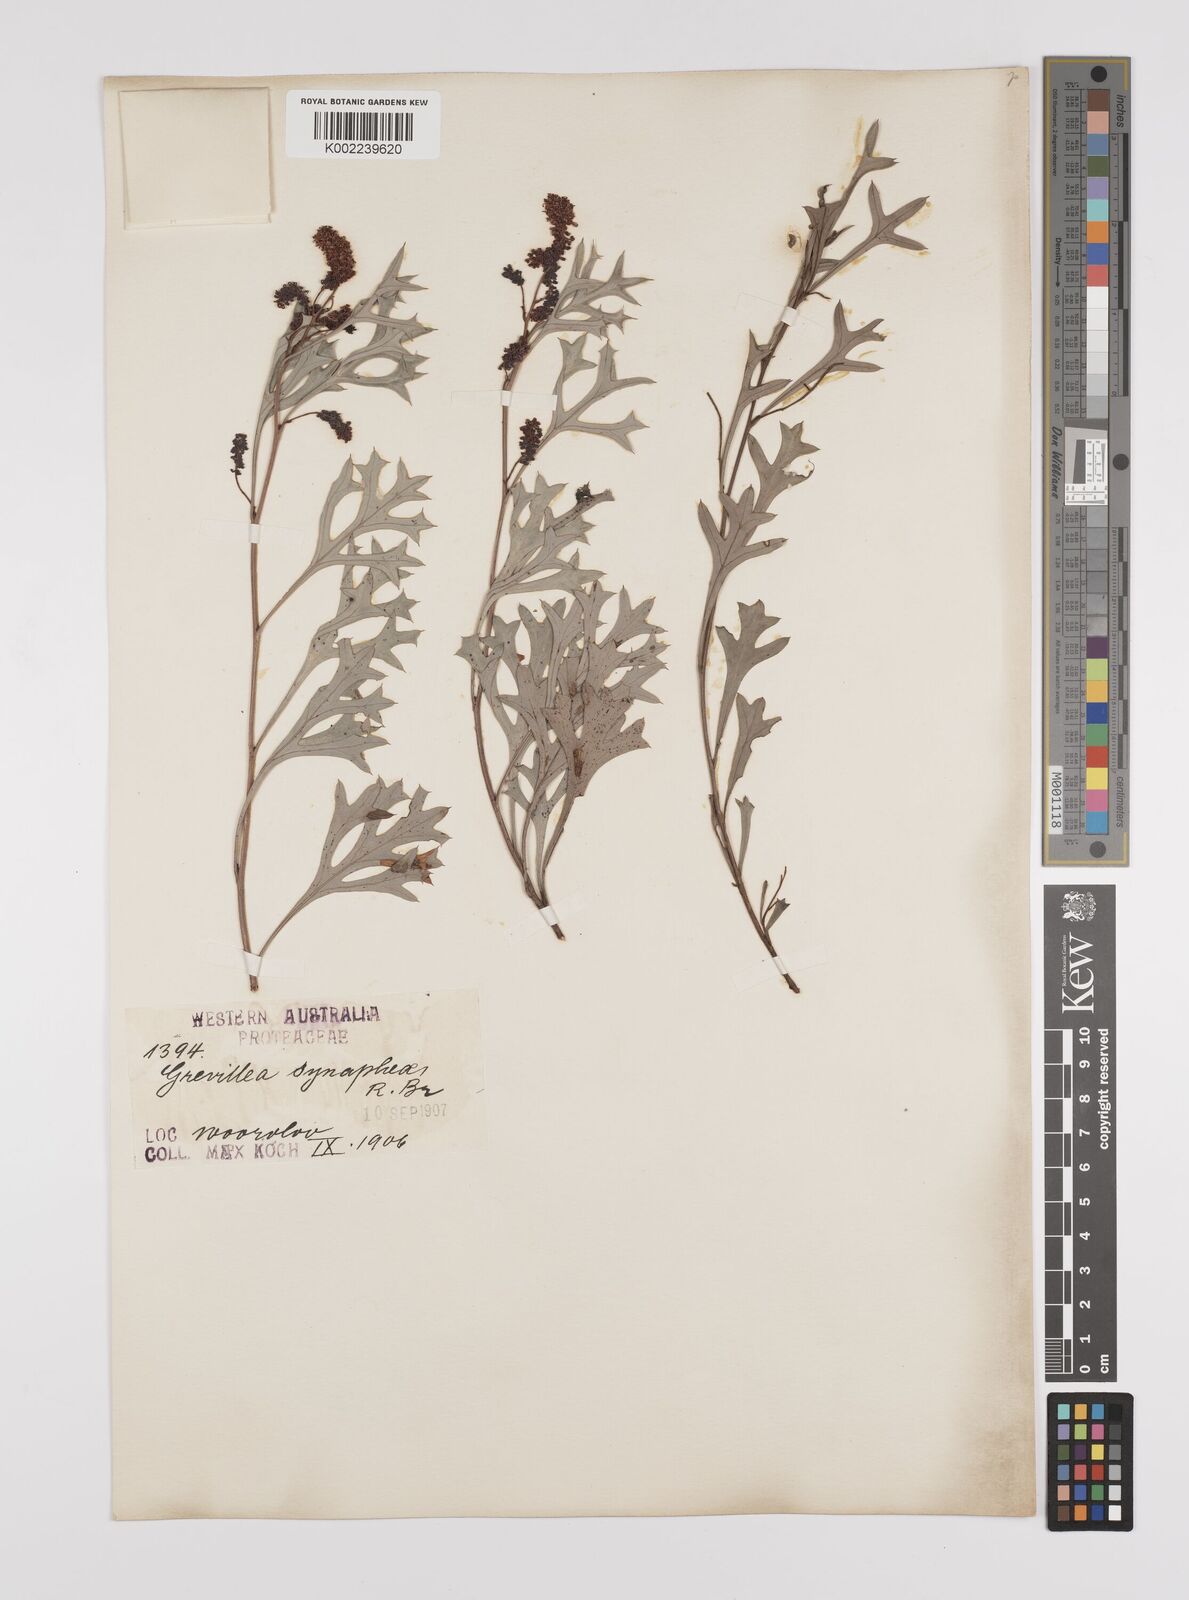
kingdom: Plantae
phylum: Tracheophyta
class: Magnoliopsida
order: Proteales
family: Proteaceae
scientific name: Proteaceae
